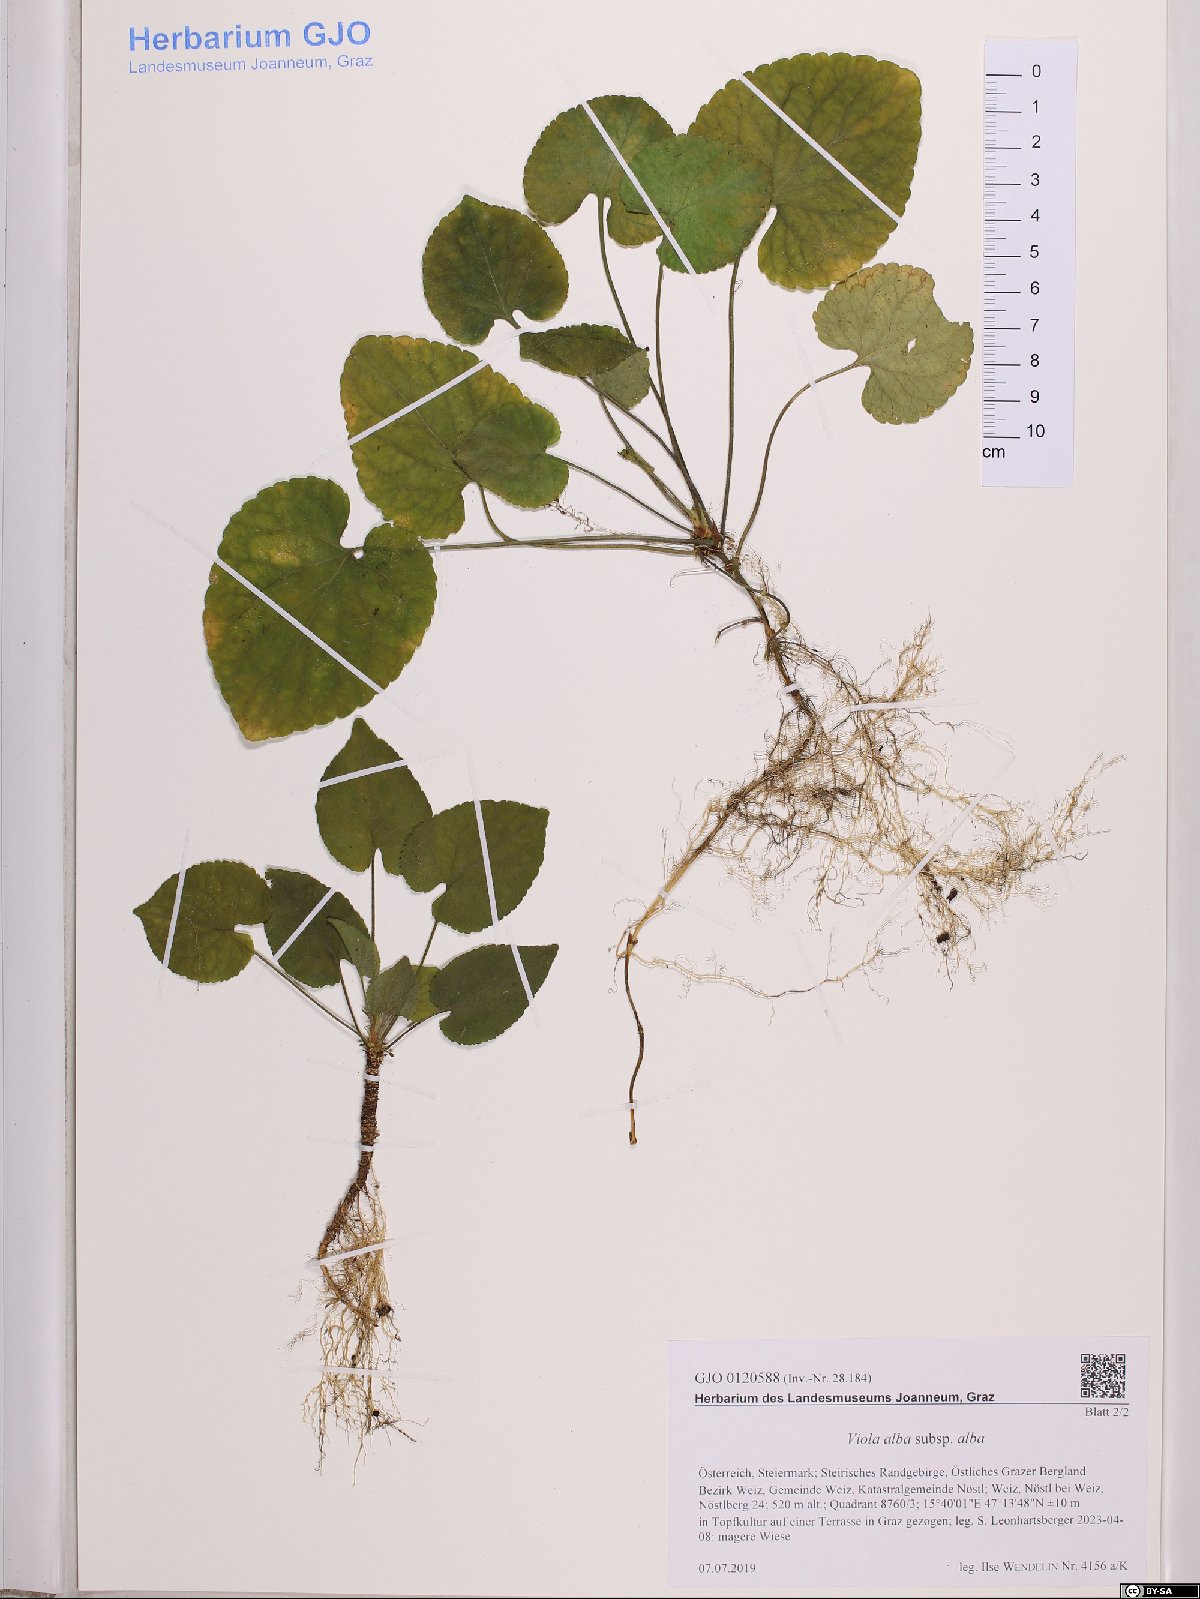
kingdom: Plantae
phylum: Tracheophyta
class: Magnoliopsida
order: Malpighiales
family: Violaceae
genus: Viola
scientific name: Viola alba
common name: White violet
